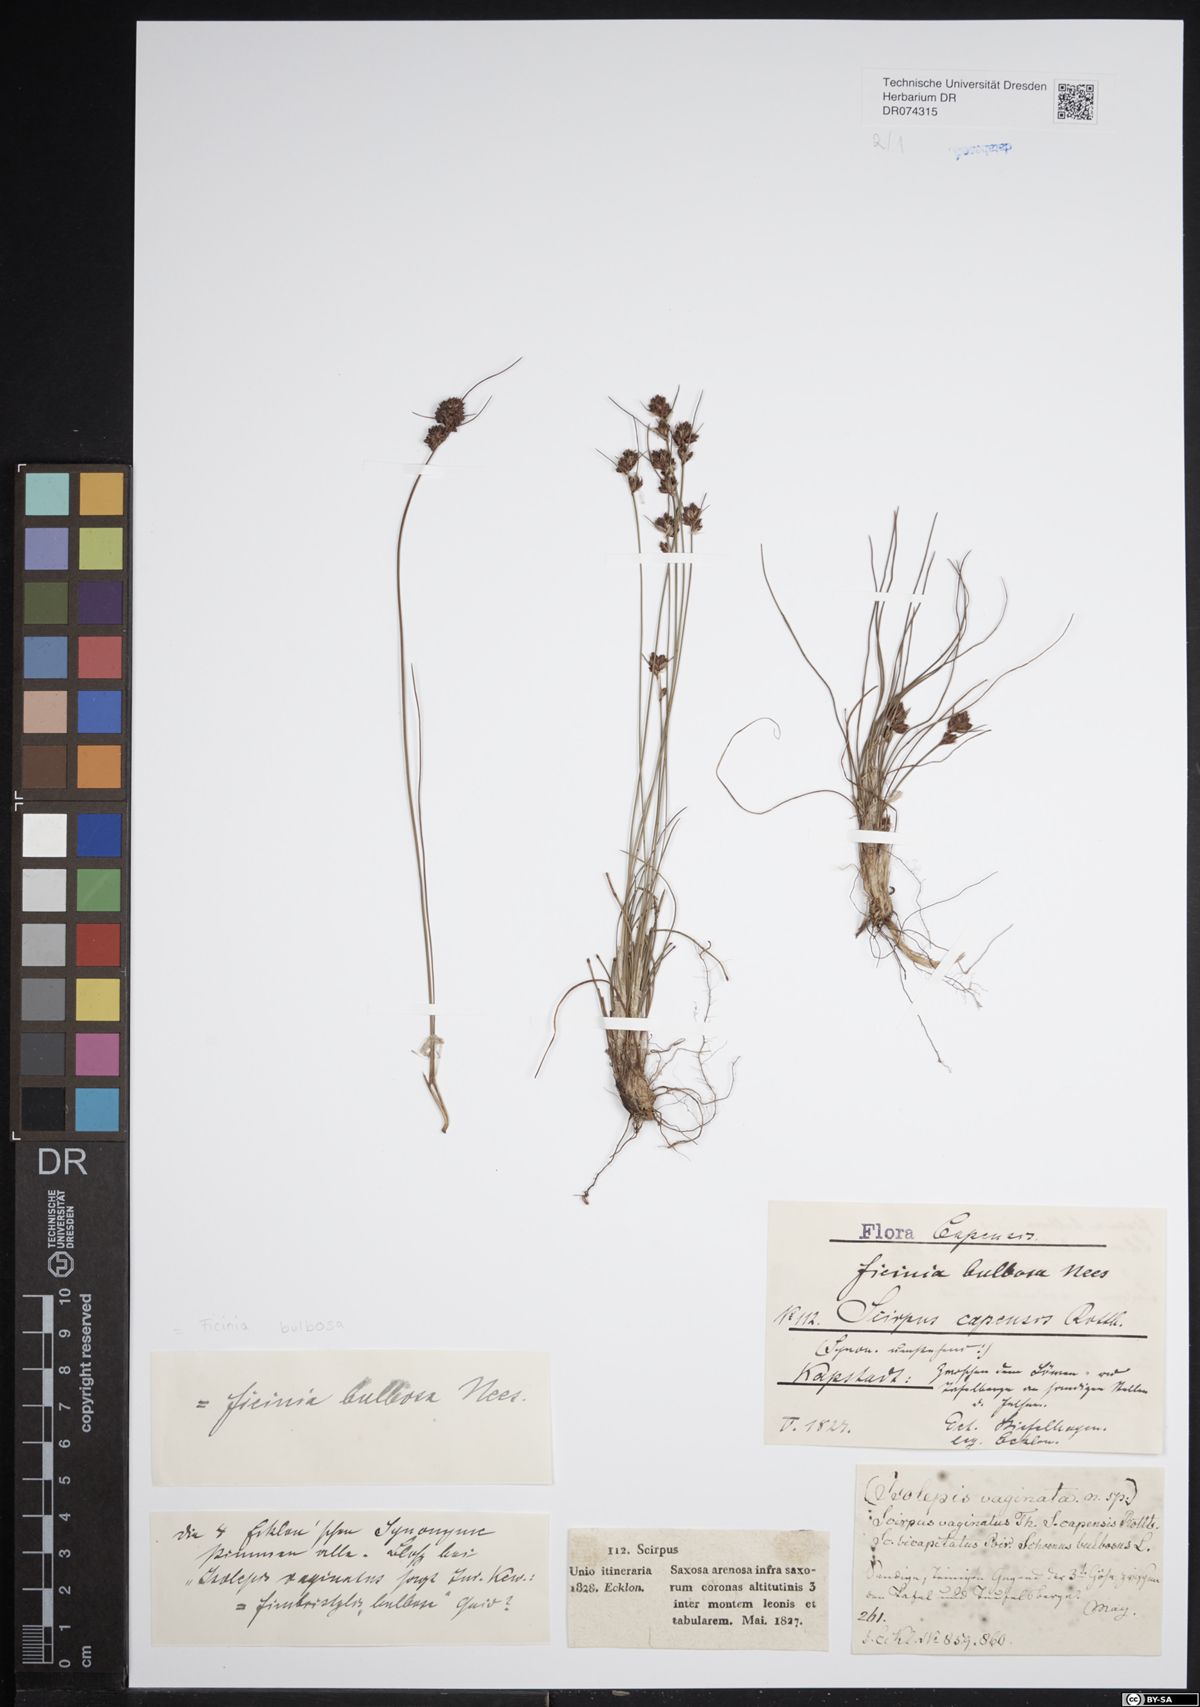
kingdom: Plantae
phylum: Tracheophyta
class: Liliopsida
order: Poales
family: Cyperaceae
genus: Ficinia
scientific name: Ficinia bulbosa
